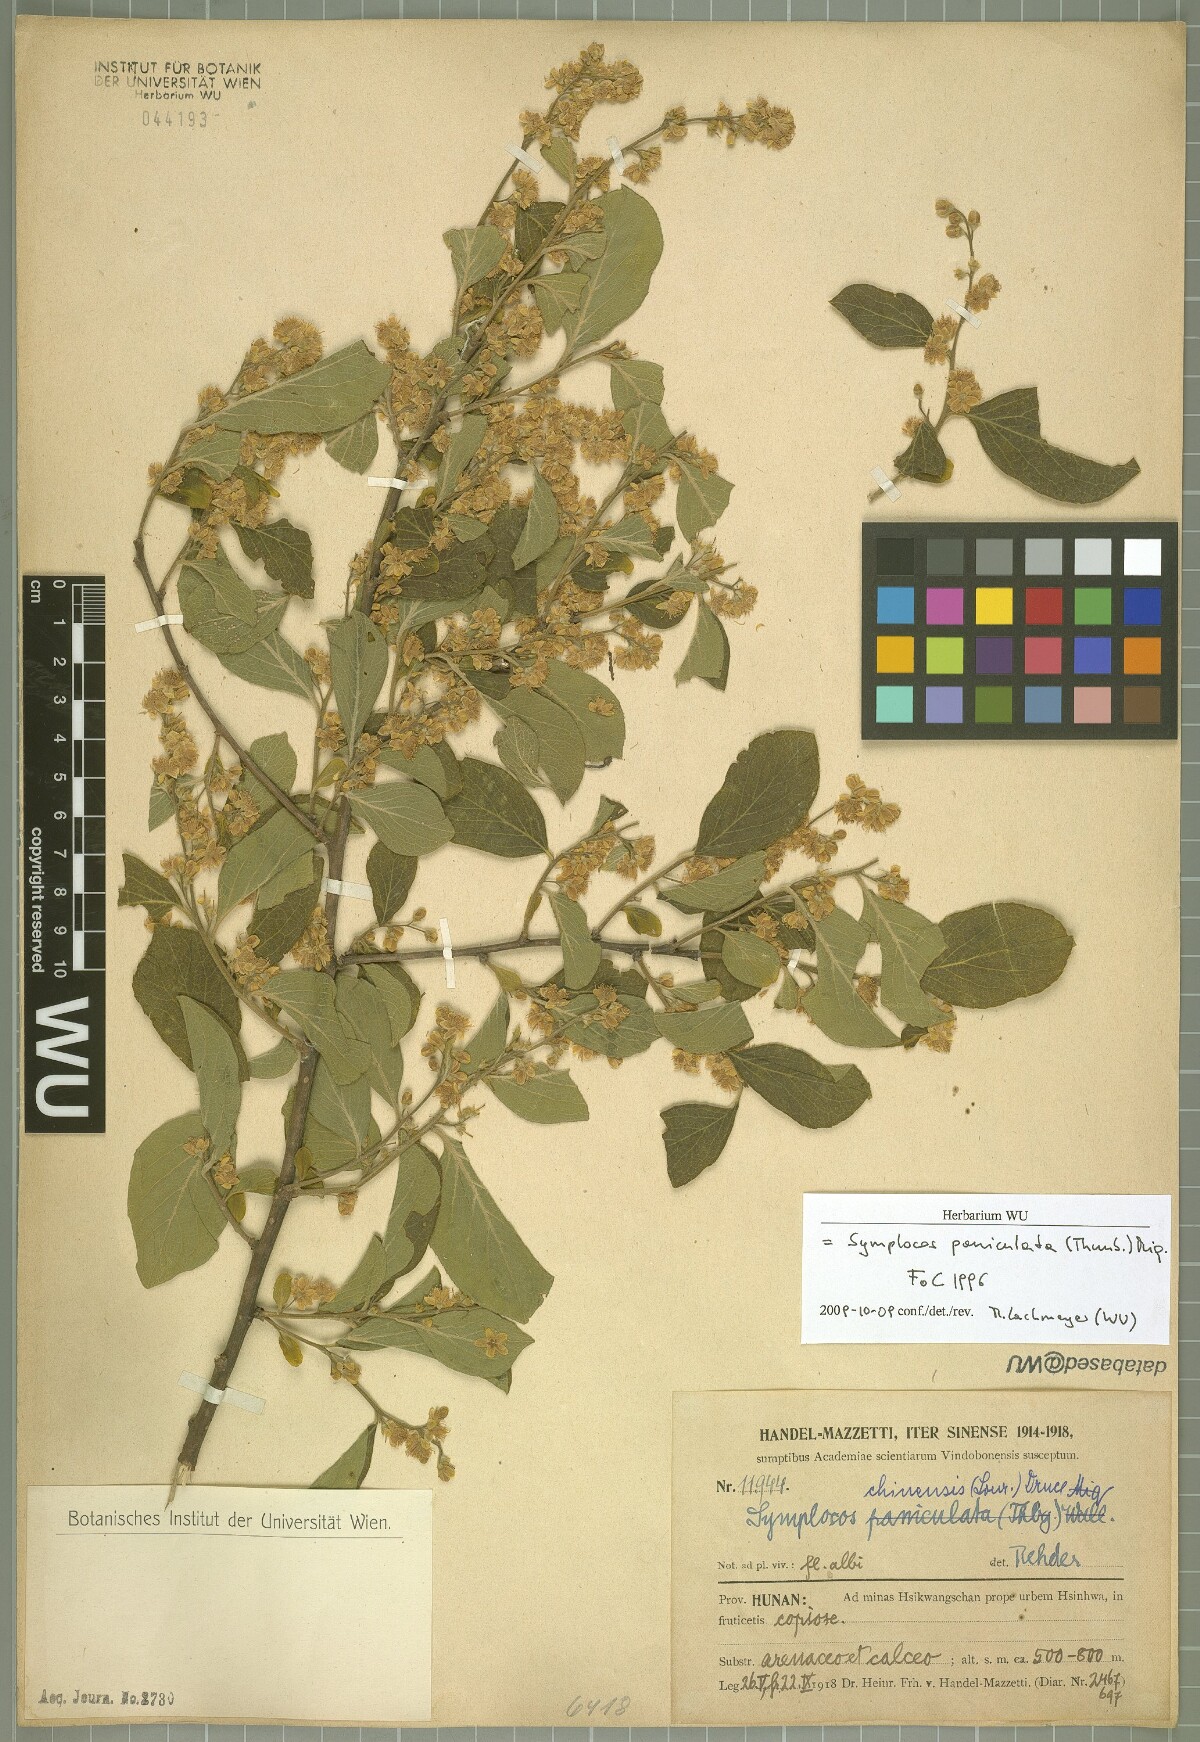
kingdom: Plantae
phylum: Tracheophyta
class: Magnoliopsida
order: Ericales
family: Symplocaceae
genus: Symplocos
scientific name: Symplocos paniculata
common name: Sapphire-berry
